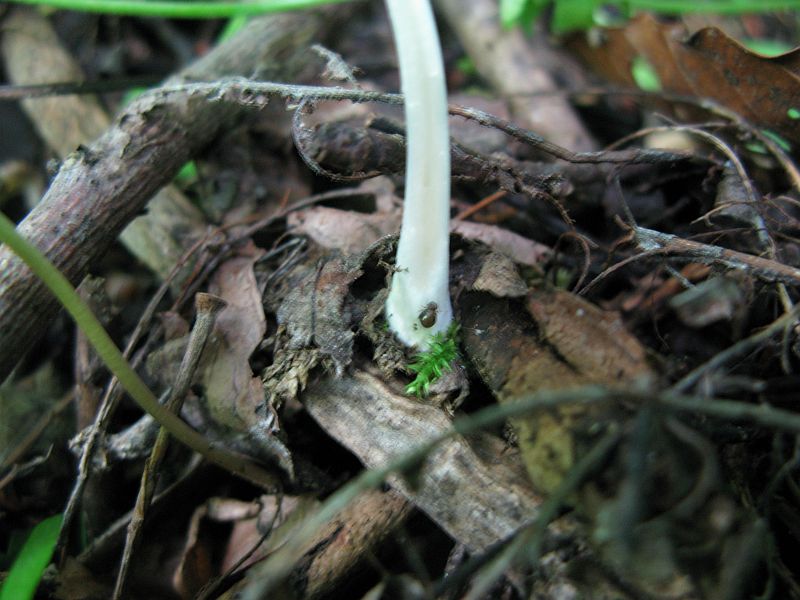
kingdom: Fungi
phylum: Basidiomycota
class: Agaricomycetes
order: Agaricales
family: Psathyrellaceae
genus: Coprinellus
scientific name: Coprinellus domesticus
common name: hus-blækhat
